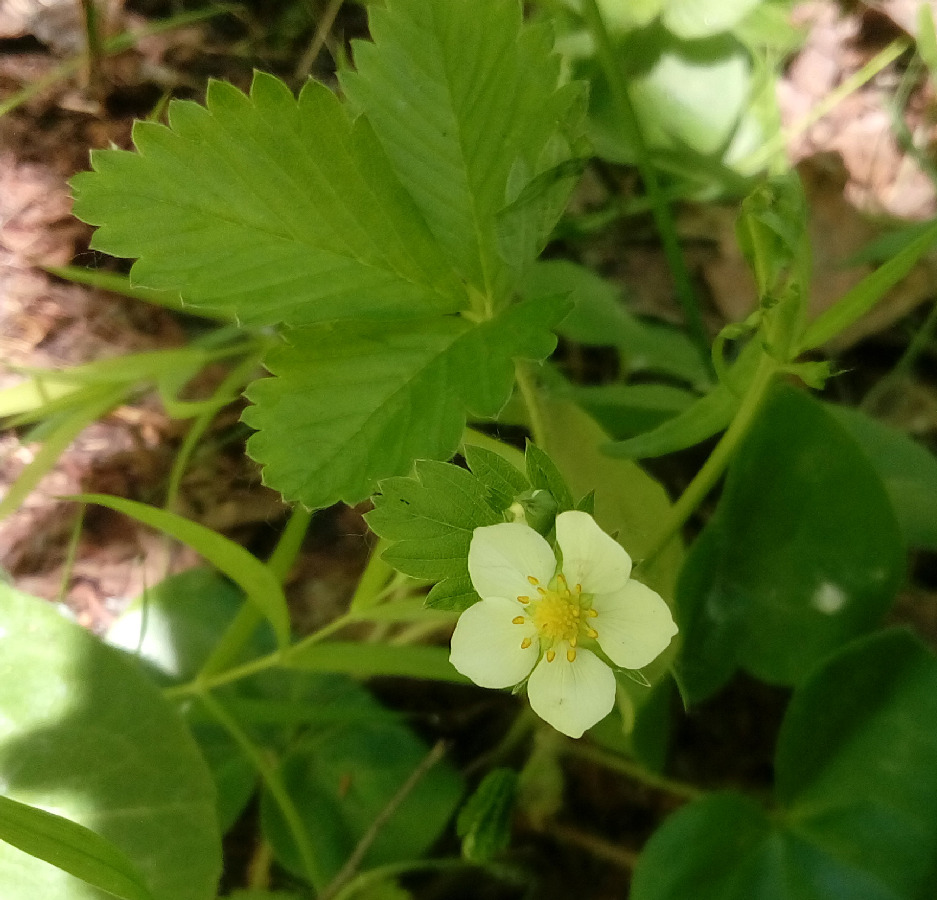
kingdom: Plantae
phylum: Tracheophyta
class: Magnoliopsida
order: Rosales
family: Rosaceae
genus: Fragaria
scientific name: Fragaria vesca
